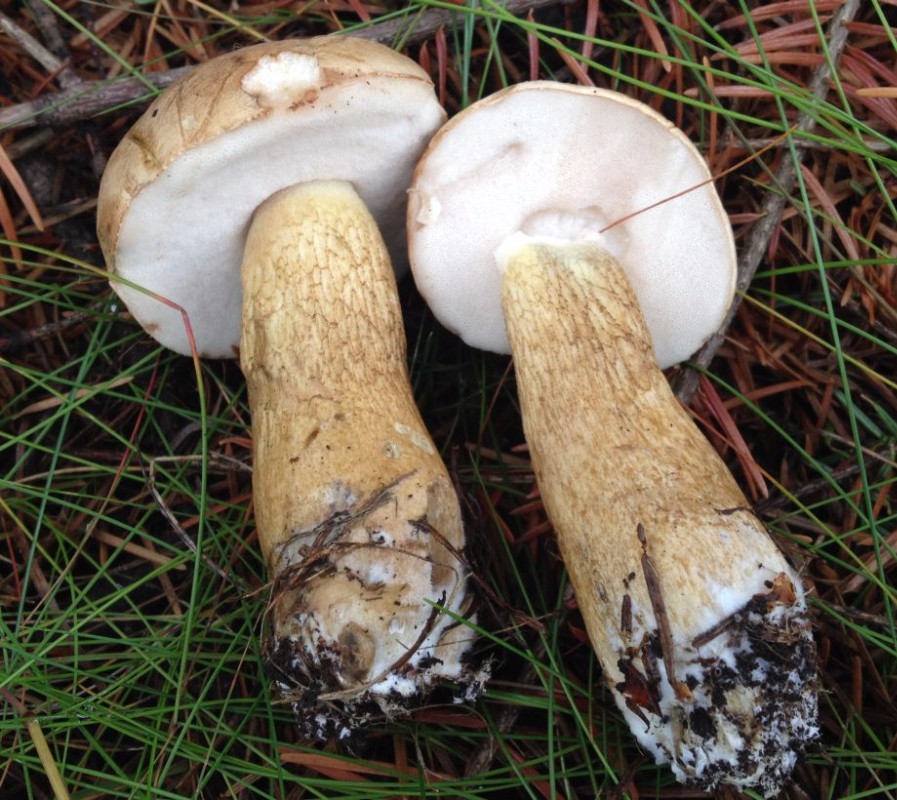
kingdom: Fungi
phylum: Basidiomycota
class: Agaricomycetes
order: Boletales
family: Boletaceae
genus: Tylopilus
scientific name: Tylopilus felleus
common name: galderørhat
